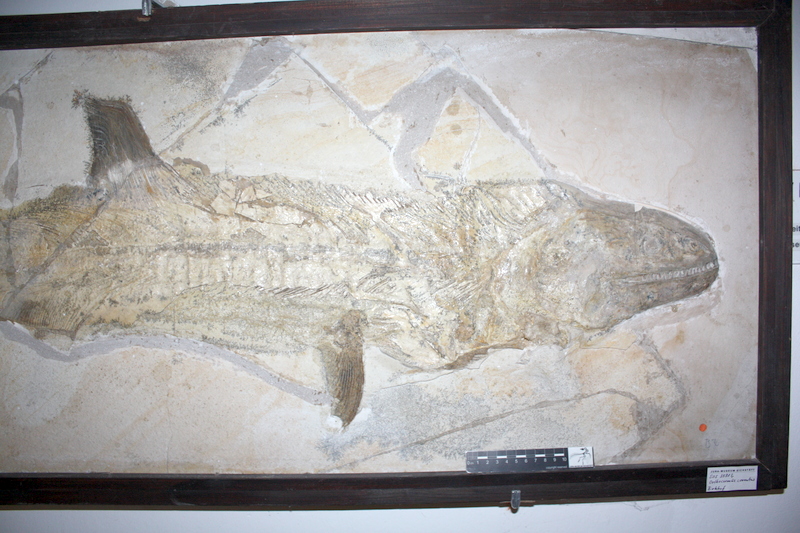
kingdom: Animalia
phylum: Chordata
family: Pachycormidae
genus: Orthocormus
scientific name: Orthocormus cornutus
